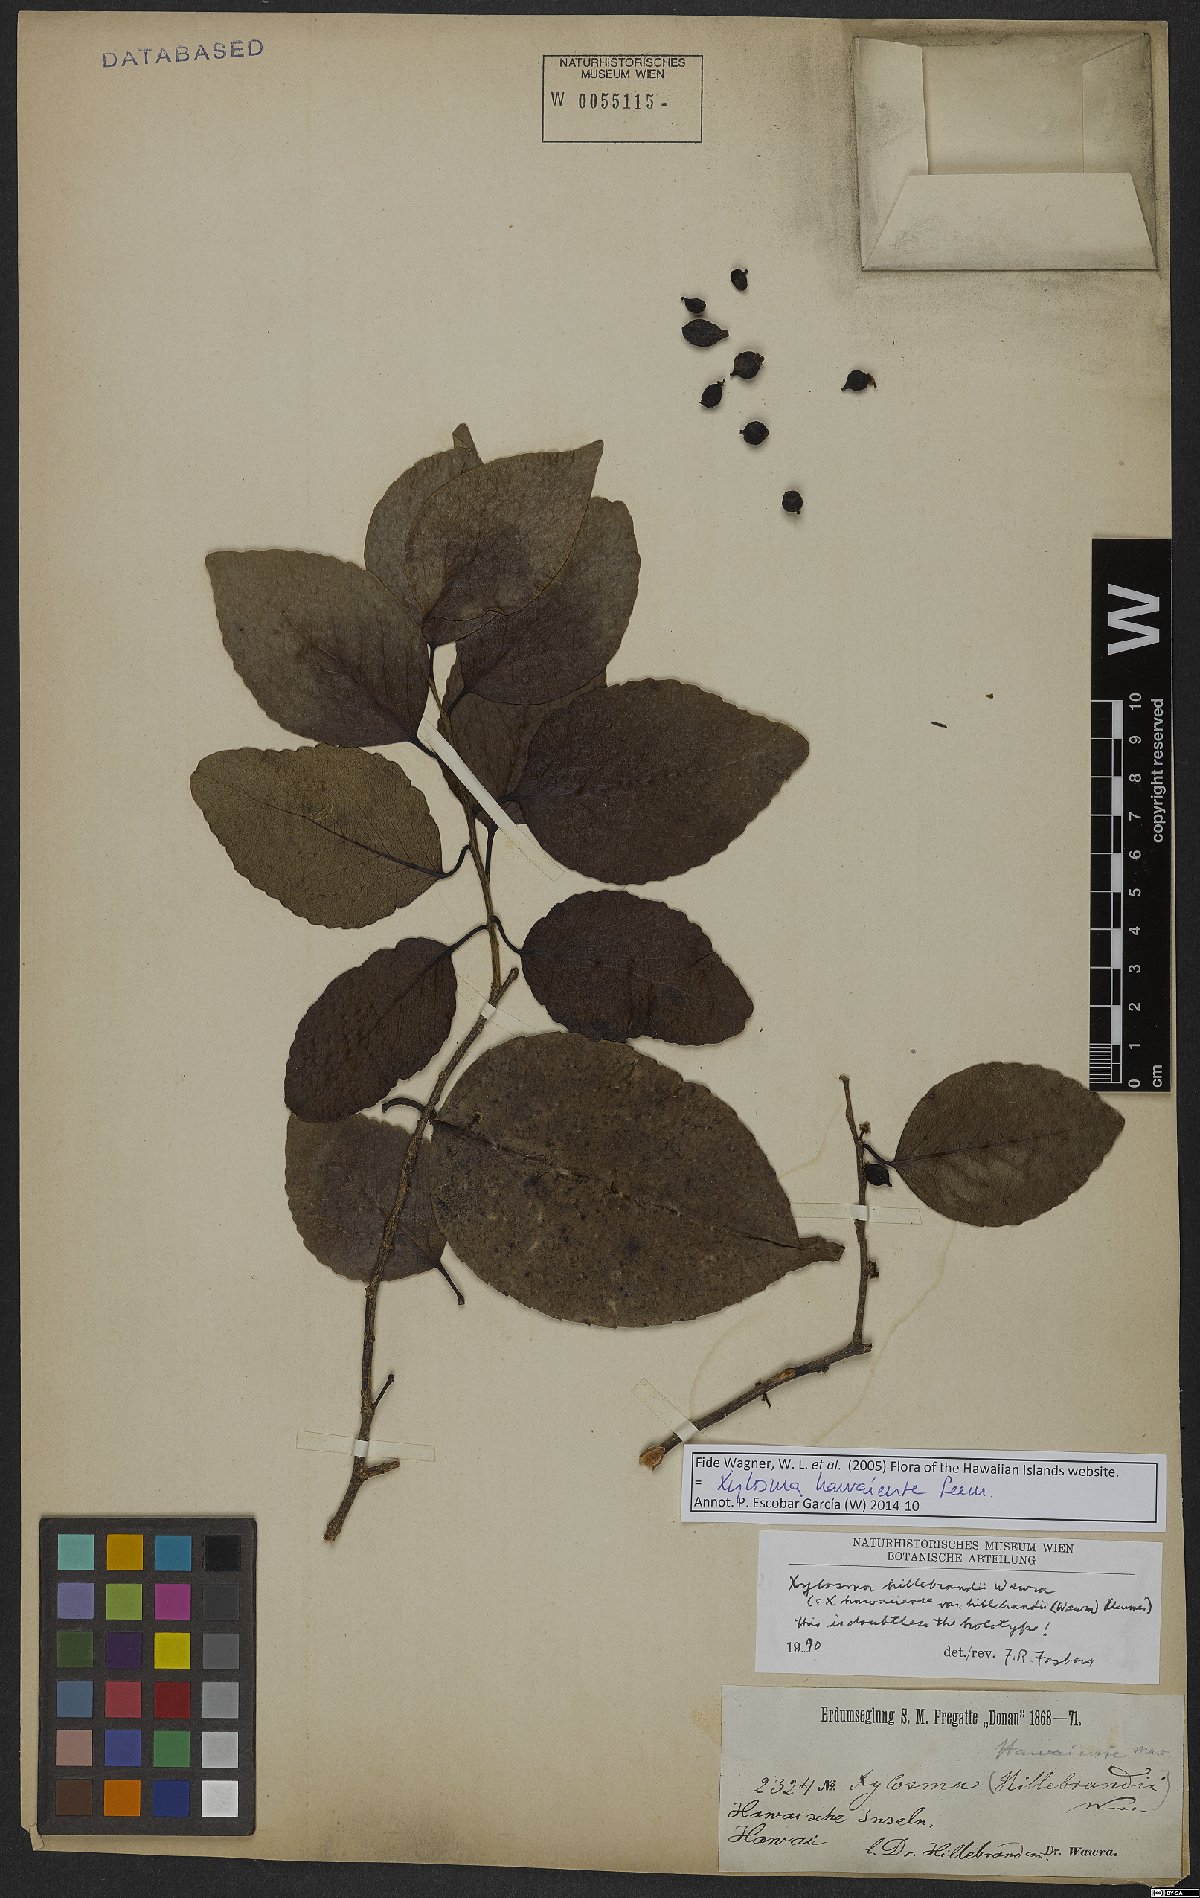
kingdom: Plantae
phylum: Tracheophyta
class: Magnoliopsida
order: Malpighiales
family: Salicaceae
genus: Xylosma
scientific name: Xylosma hawaiense
